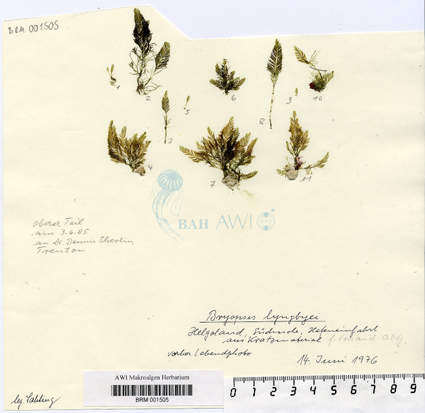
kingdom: Plantae
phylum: Chlorophyta
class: Ulvophyceae
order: Bryopsidales
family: Bryopsidaceae
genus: Bryopsis
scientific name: Bryopsis lyngbyei
